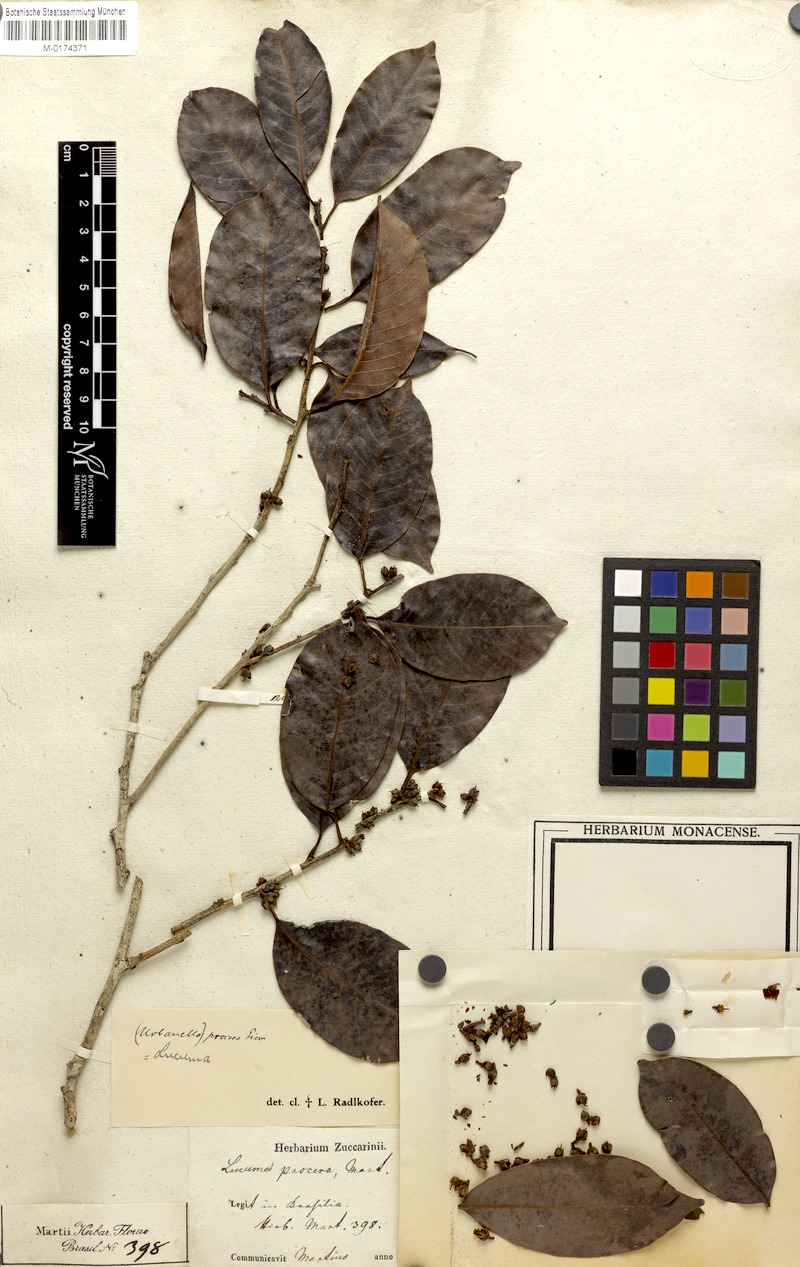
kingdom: Plantae
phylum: Tracheophyta
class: Magnoliopsida
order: Ericales
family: Sapotaceae
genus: Pouteria
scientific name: Pouteria procera
